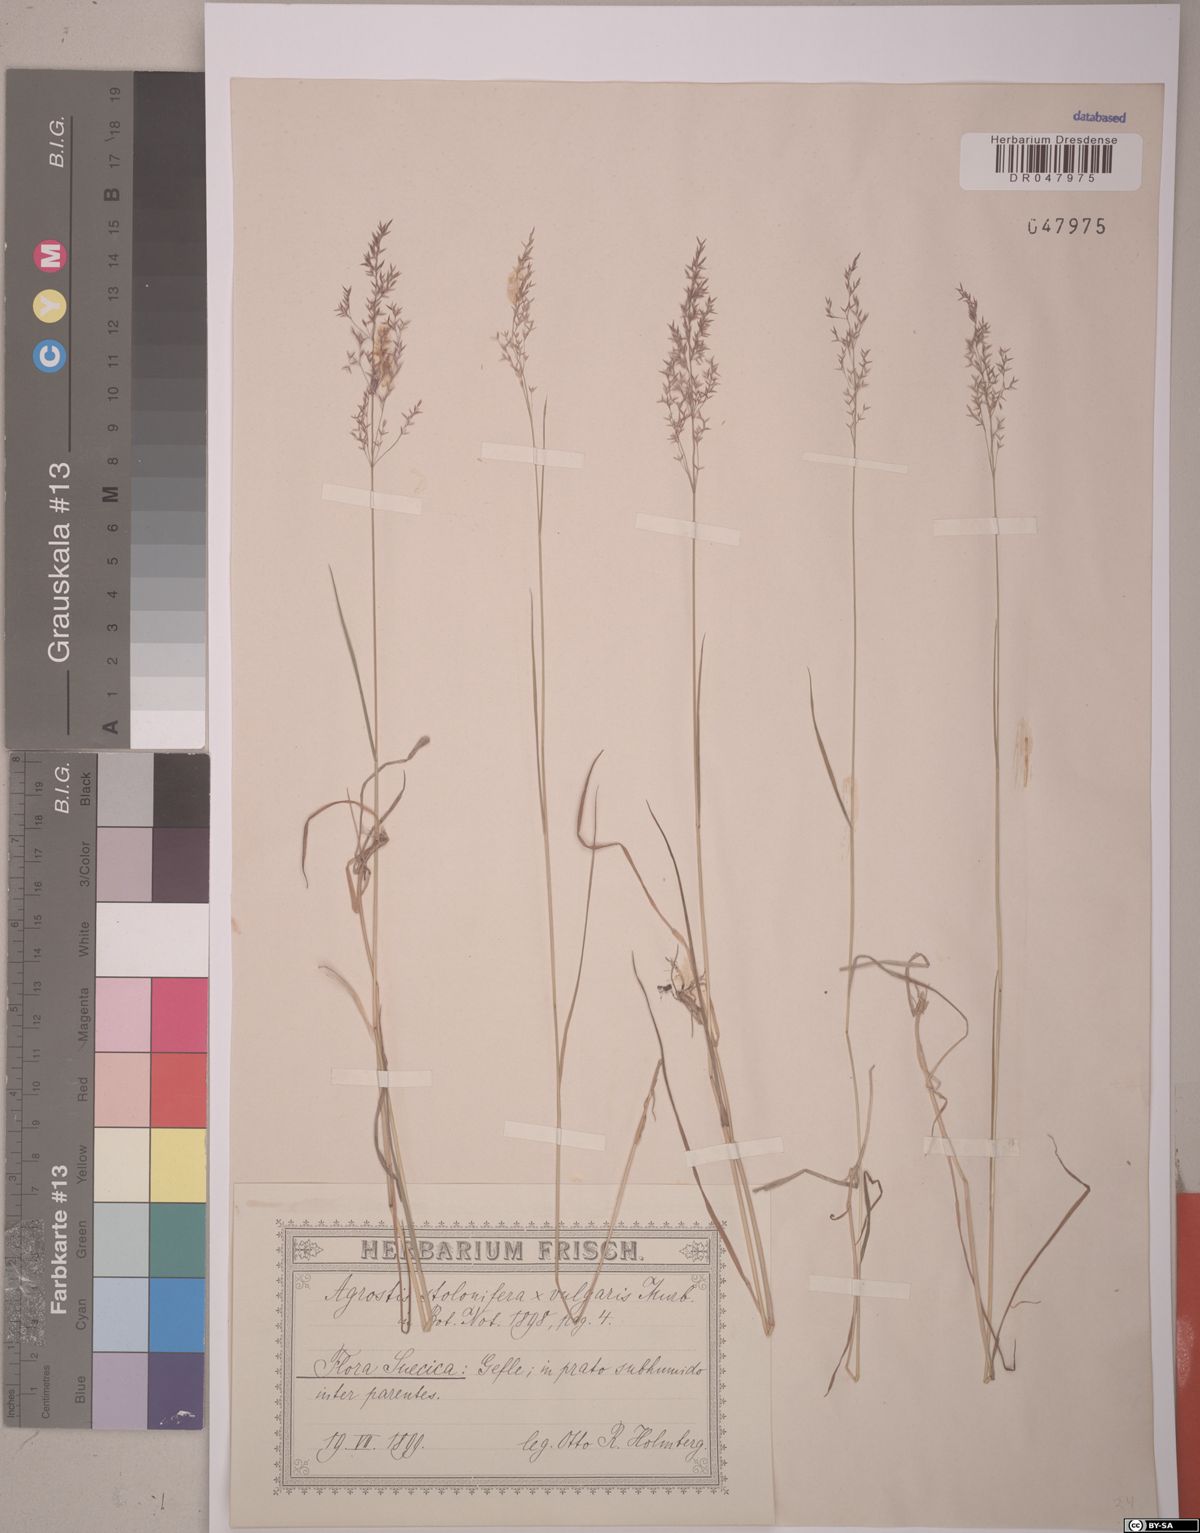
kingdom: Plantae
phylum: Tracheophyta
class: Liliopsida
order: Poales
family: Poaceae
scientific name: Poaceae
